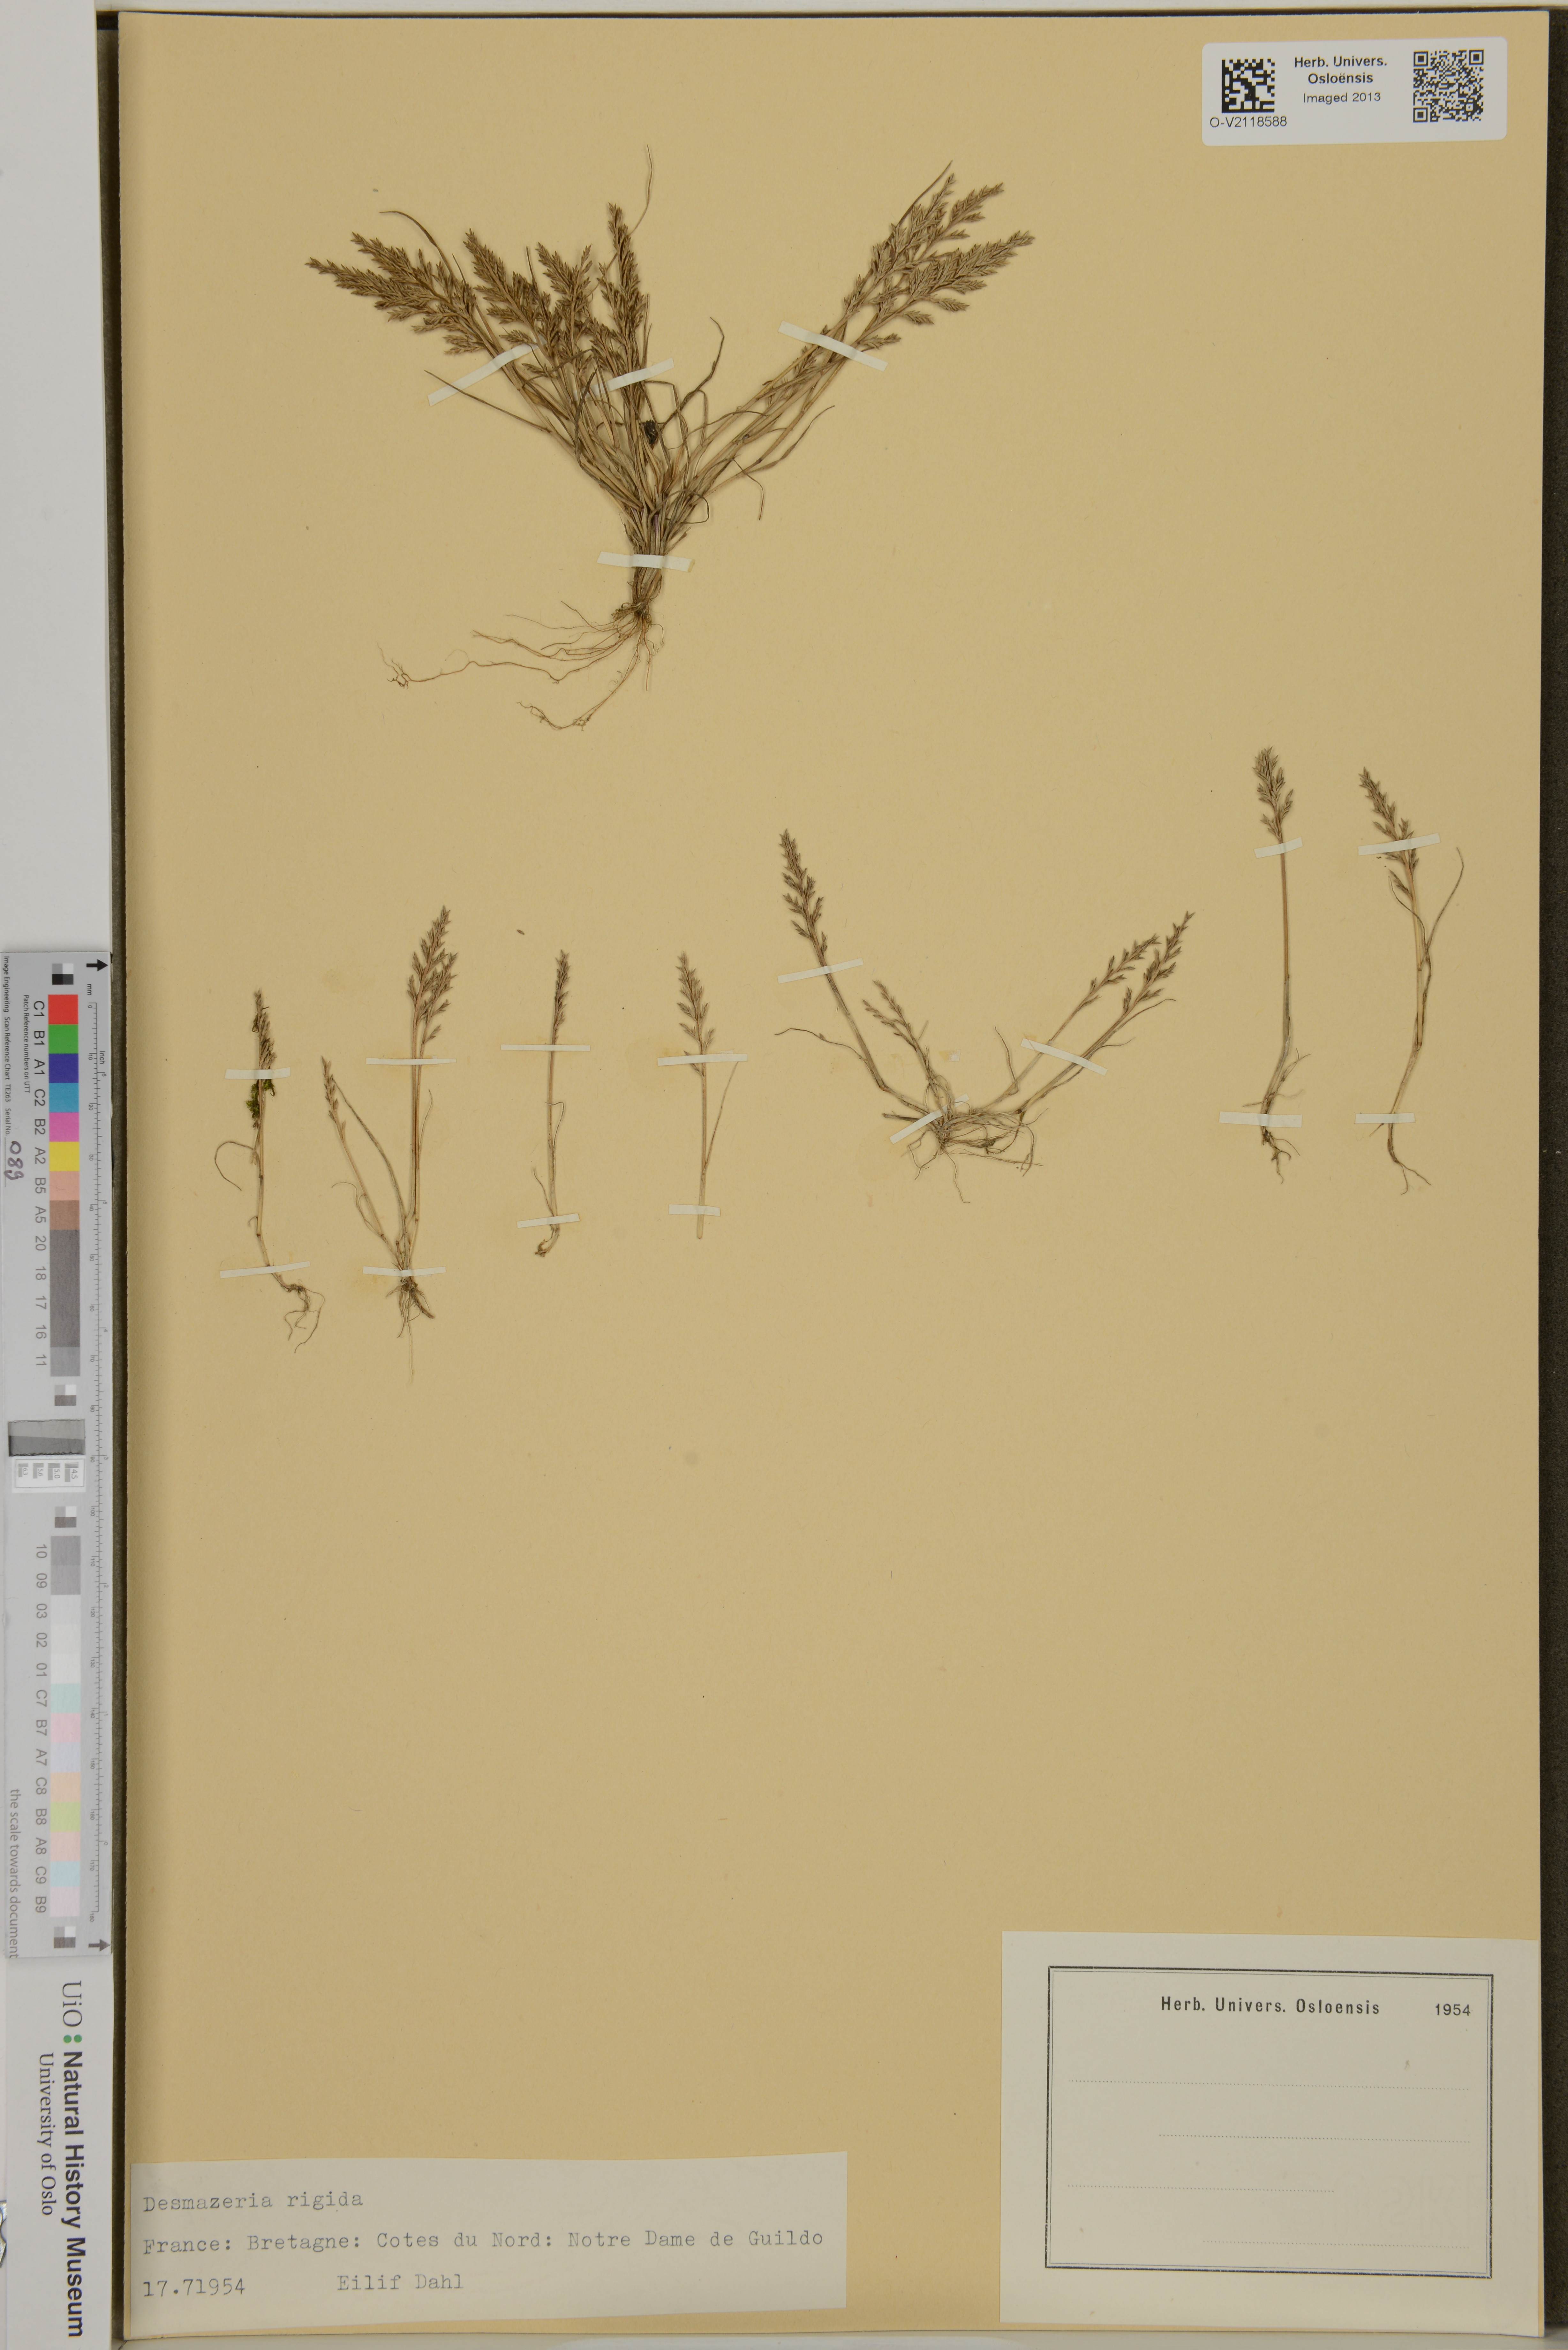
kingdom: Plantae
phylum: Tracheophyta
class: Liliopsida
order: Poales
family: Poaceae
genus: Catapodium
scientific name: Catapodium rigidum
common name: Fern-grass
